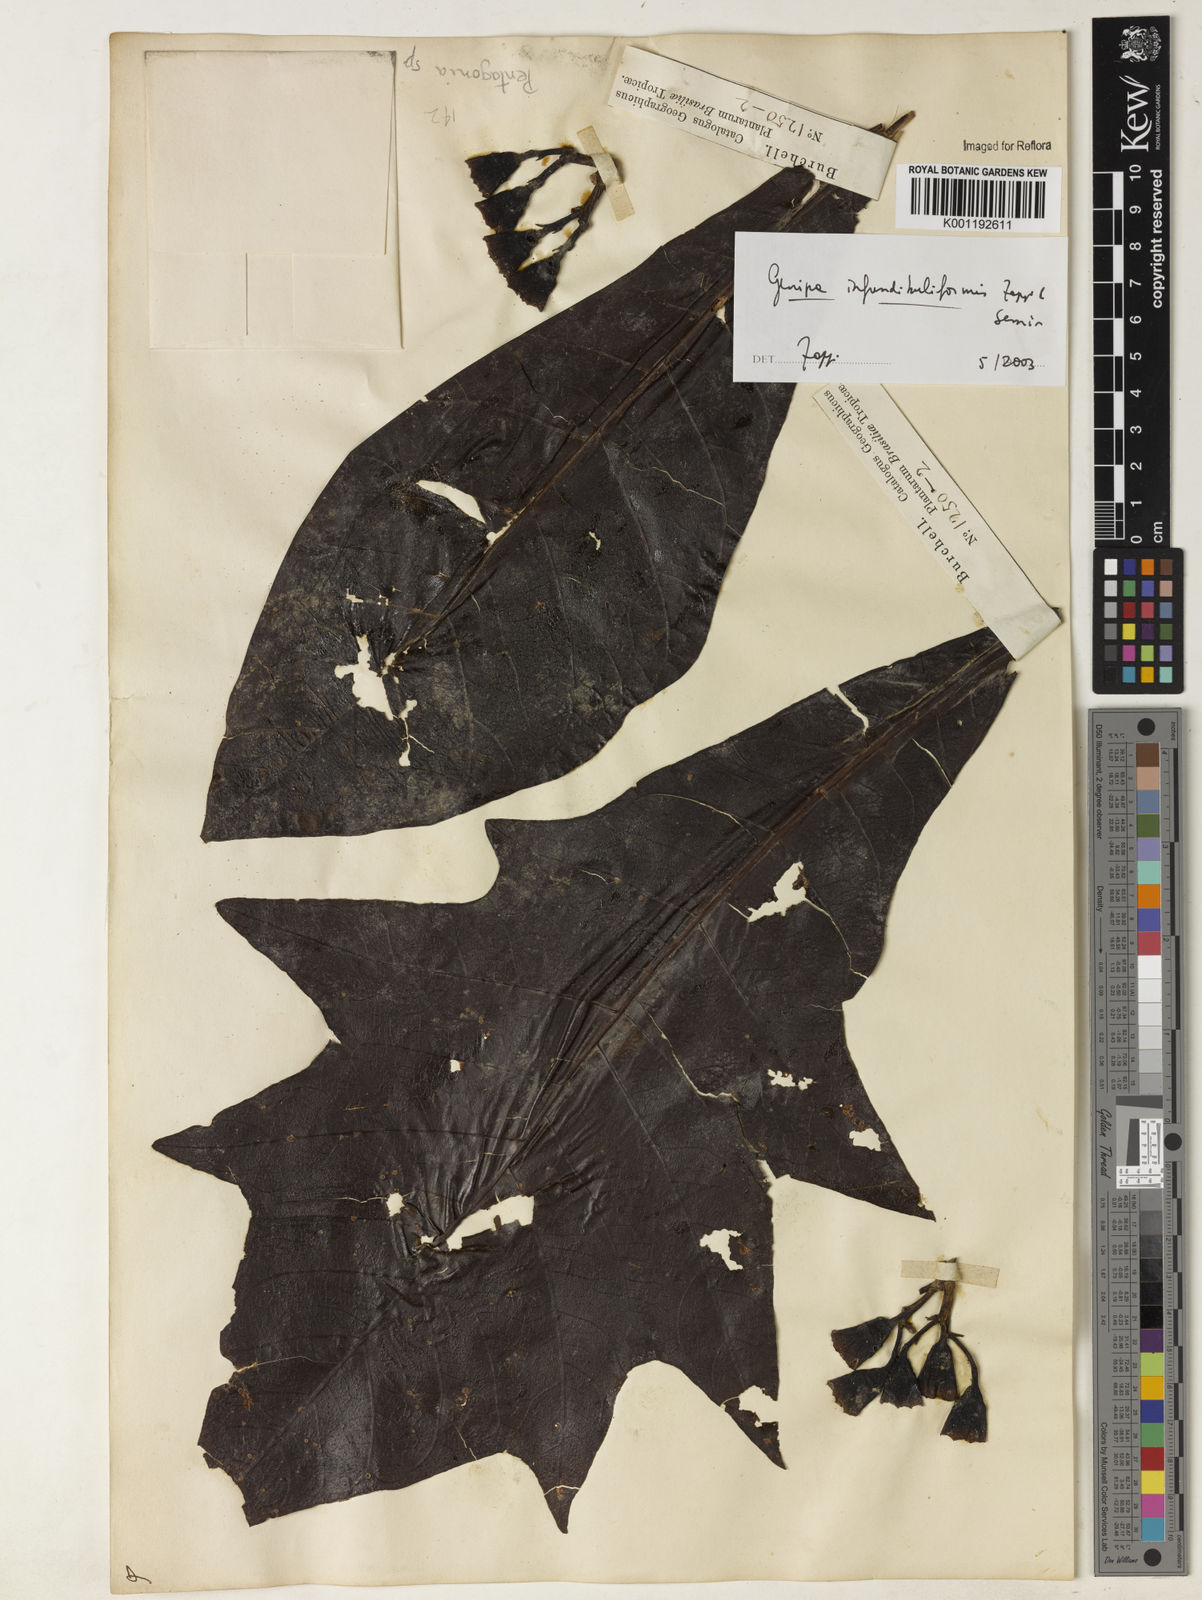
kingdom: Plantae
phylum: Tracheophyta
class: Magnoliopsida
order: Gentianales
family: Rubiaceae
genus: Genipa
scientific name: Genipa
